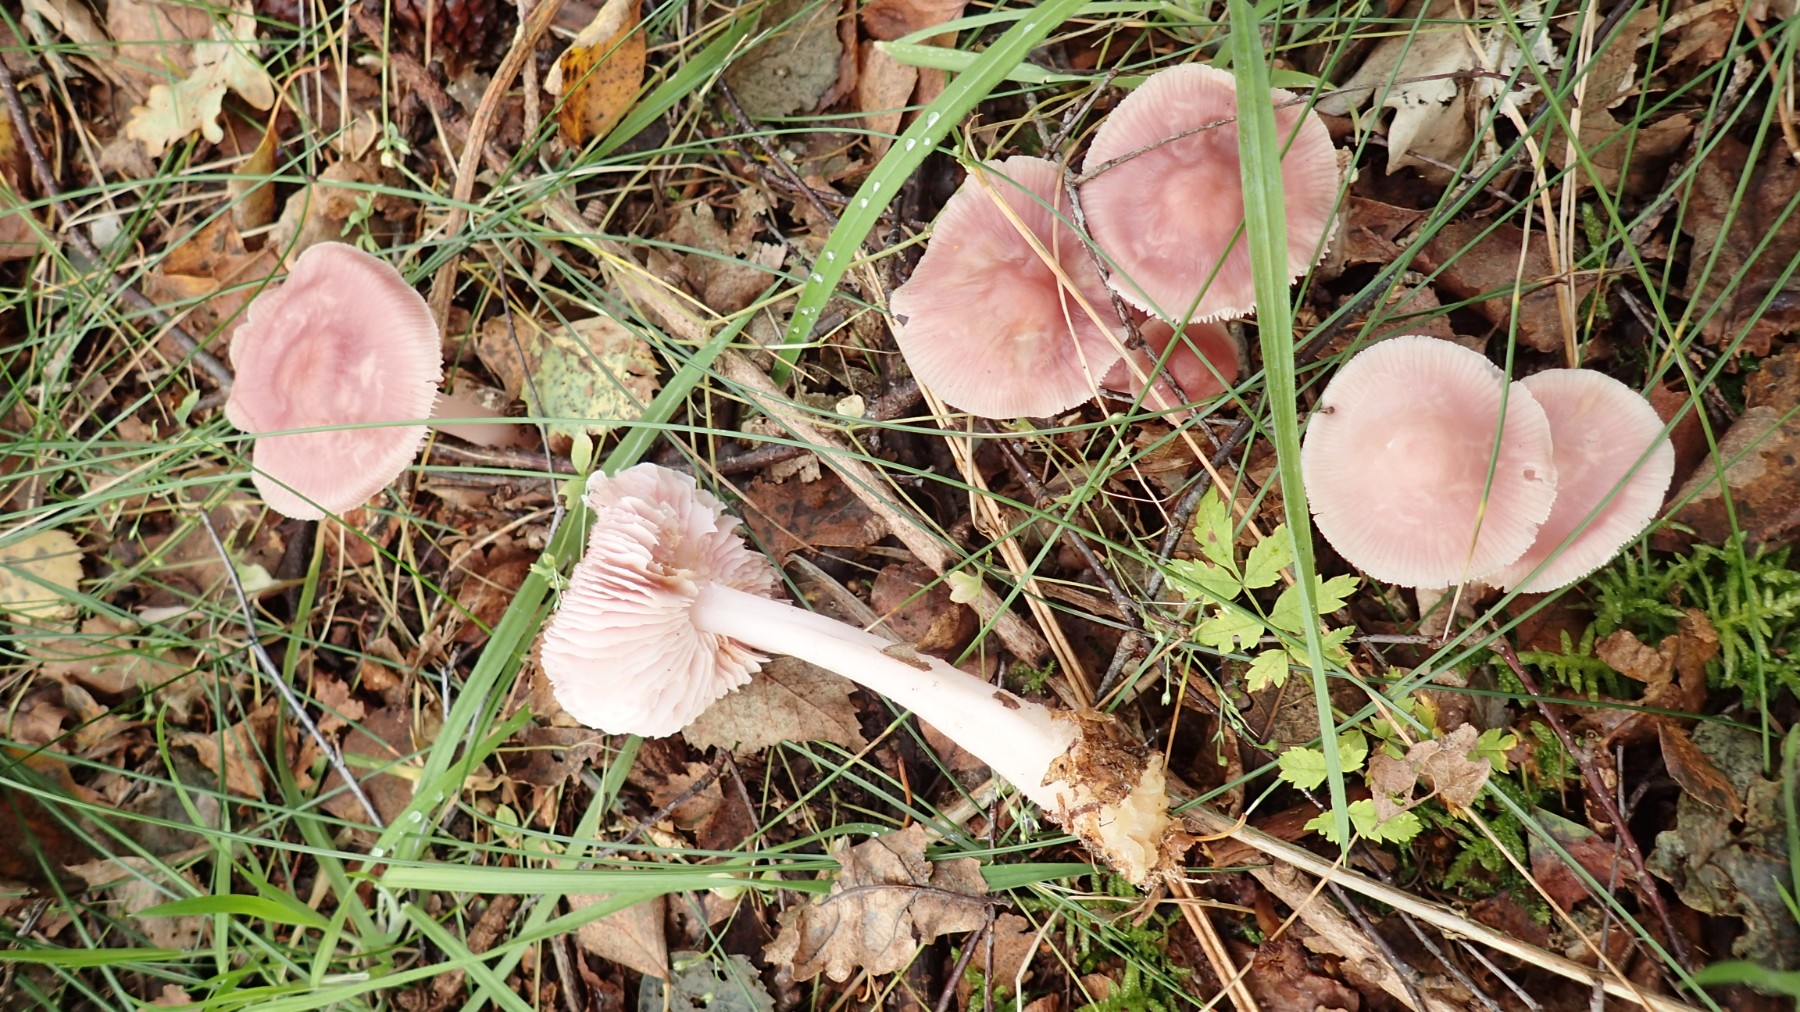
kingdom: Fungi
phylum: Basidiomycota
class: Agaricomycetes
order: Agaricales
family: Mycenaceae
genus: Mycena
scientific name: Mycena rosea
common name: rosa huesvamp
